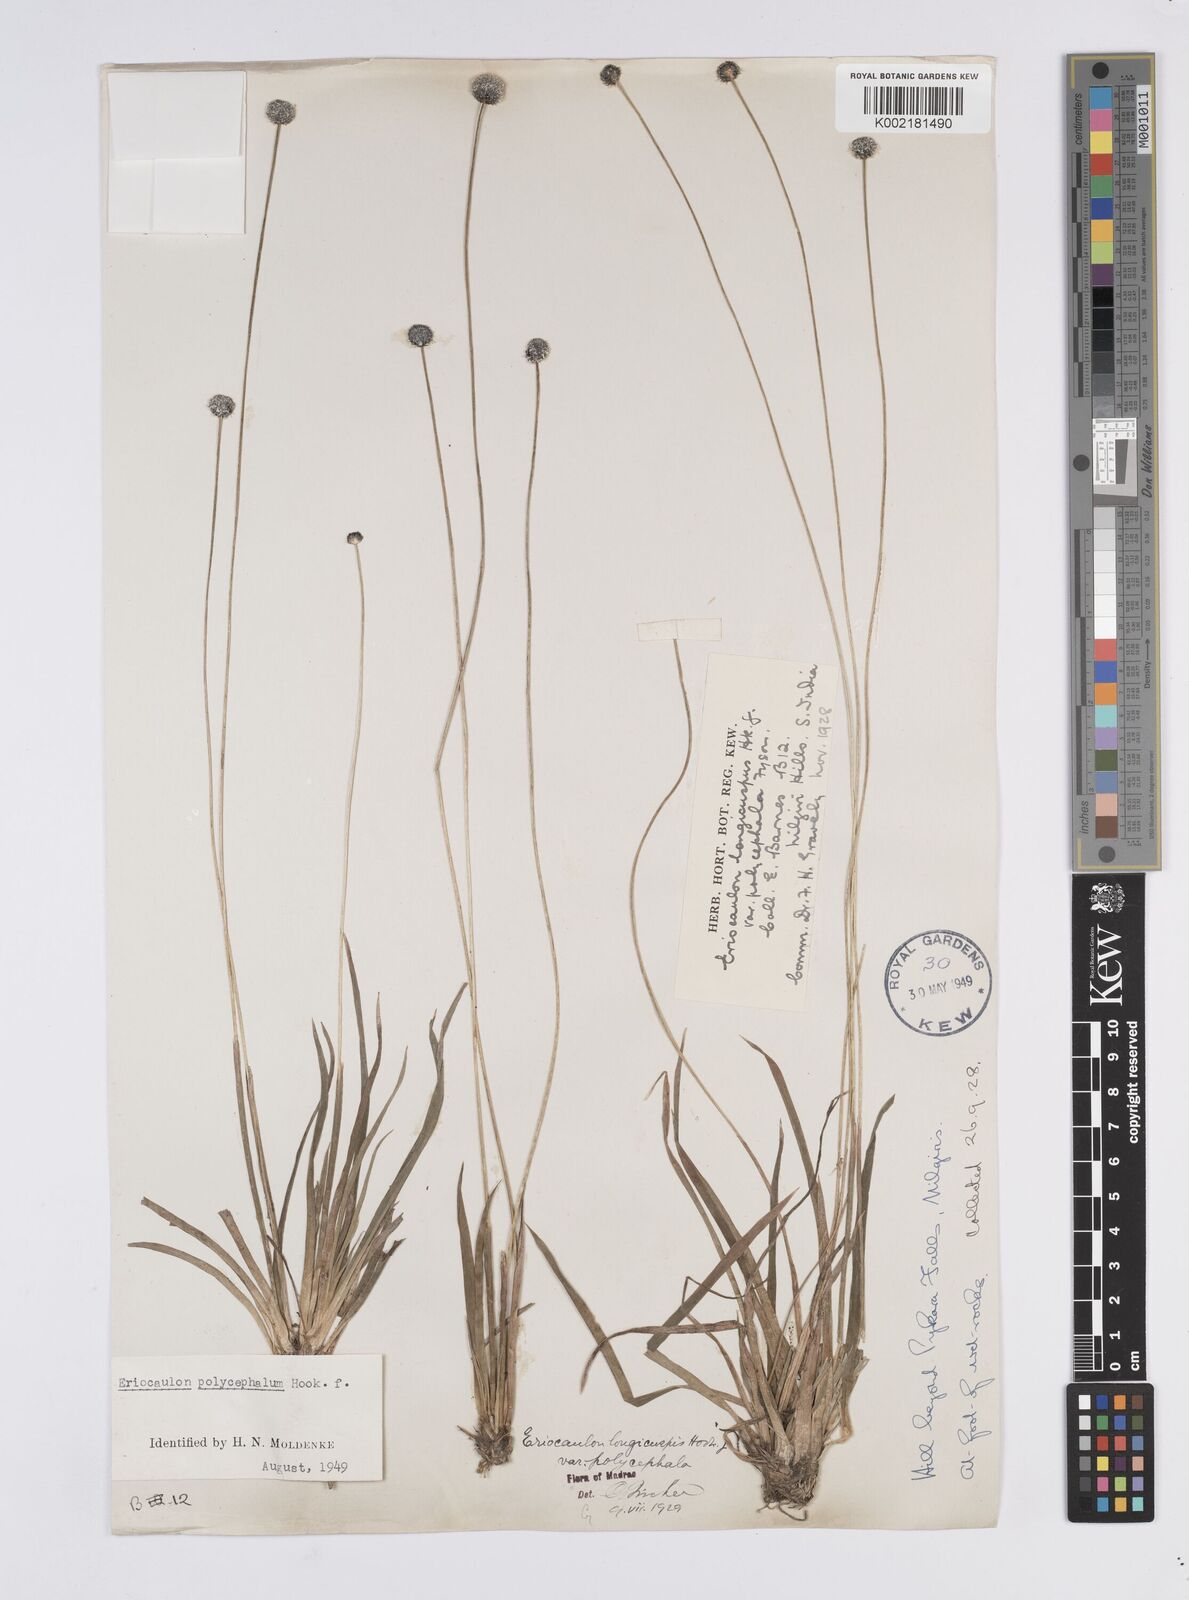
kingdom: Plantae
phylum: Tracheophyta
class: Liliopsida
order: Poales
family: Eriocaulaceae
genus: Eriocaulon
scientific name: Eriocaulon longicuspe
